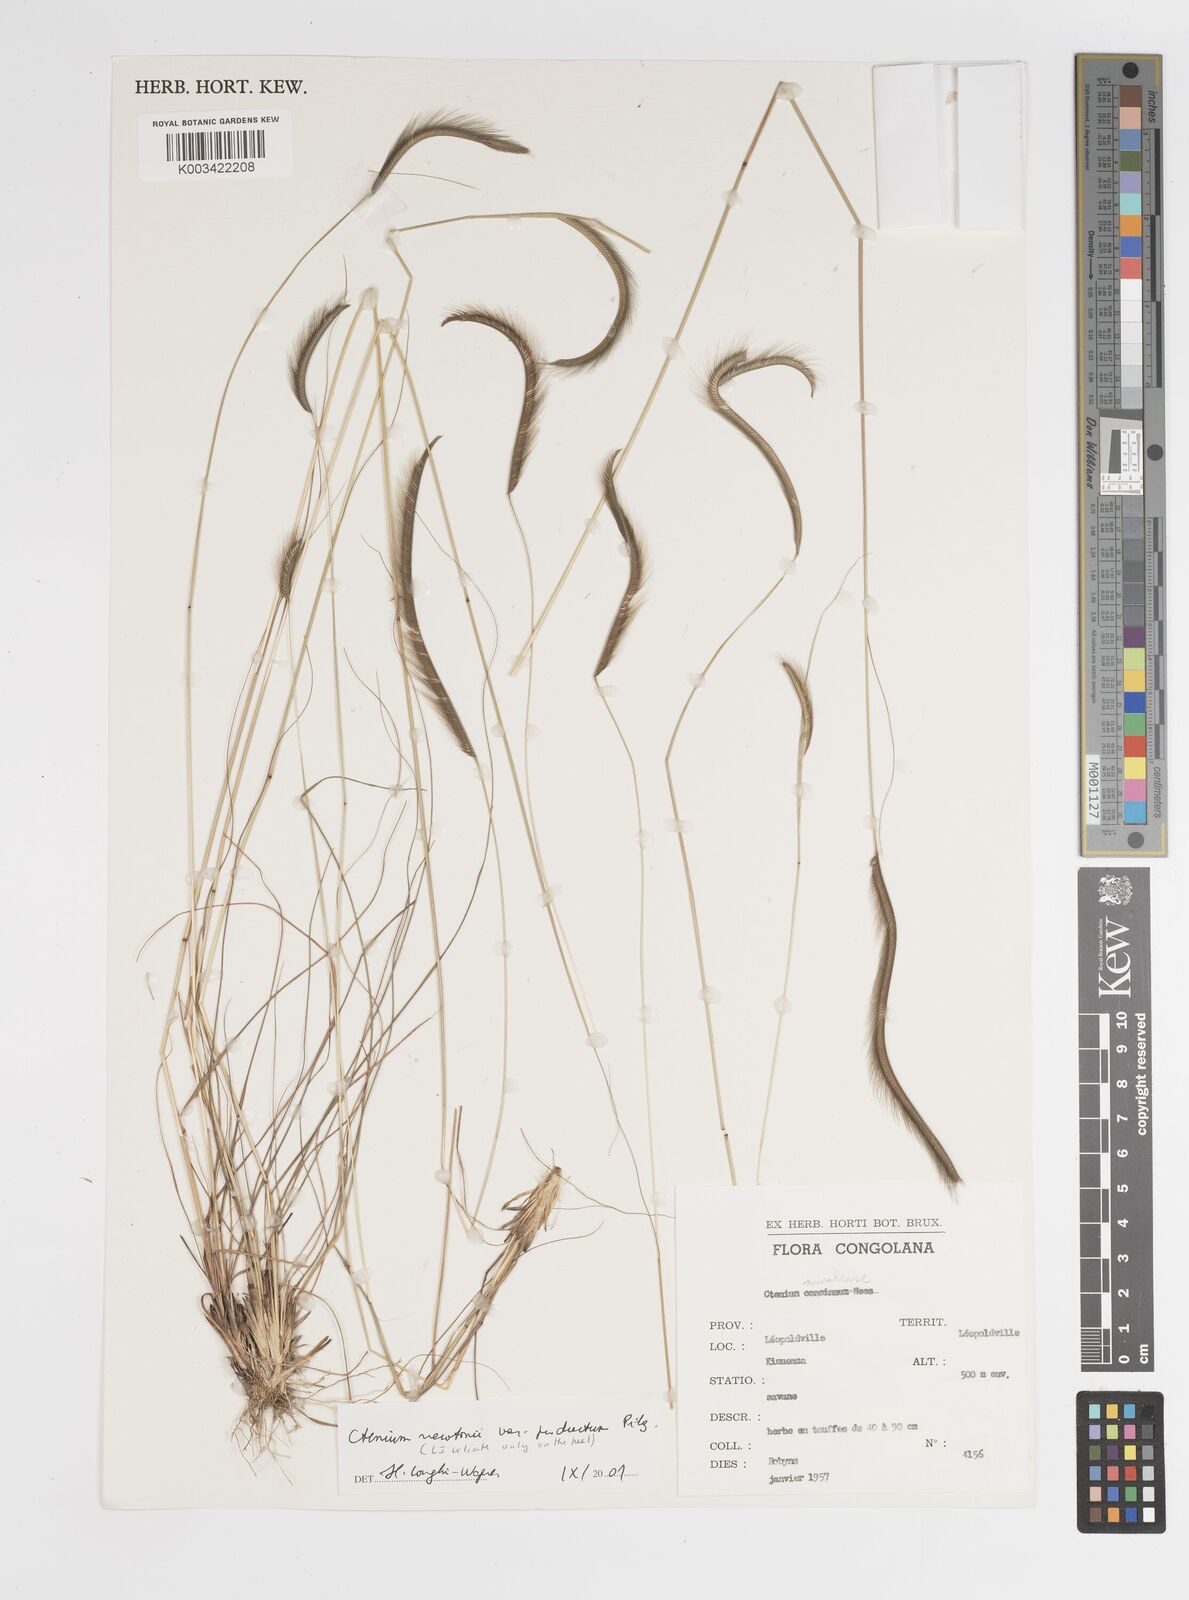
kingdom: Plantae
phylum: Tracheophyta
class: Liliopsida
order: Poales
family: Poaceae
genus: Ctenium
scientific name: Ctenium newtonii
